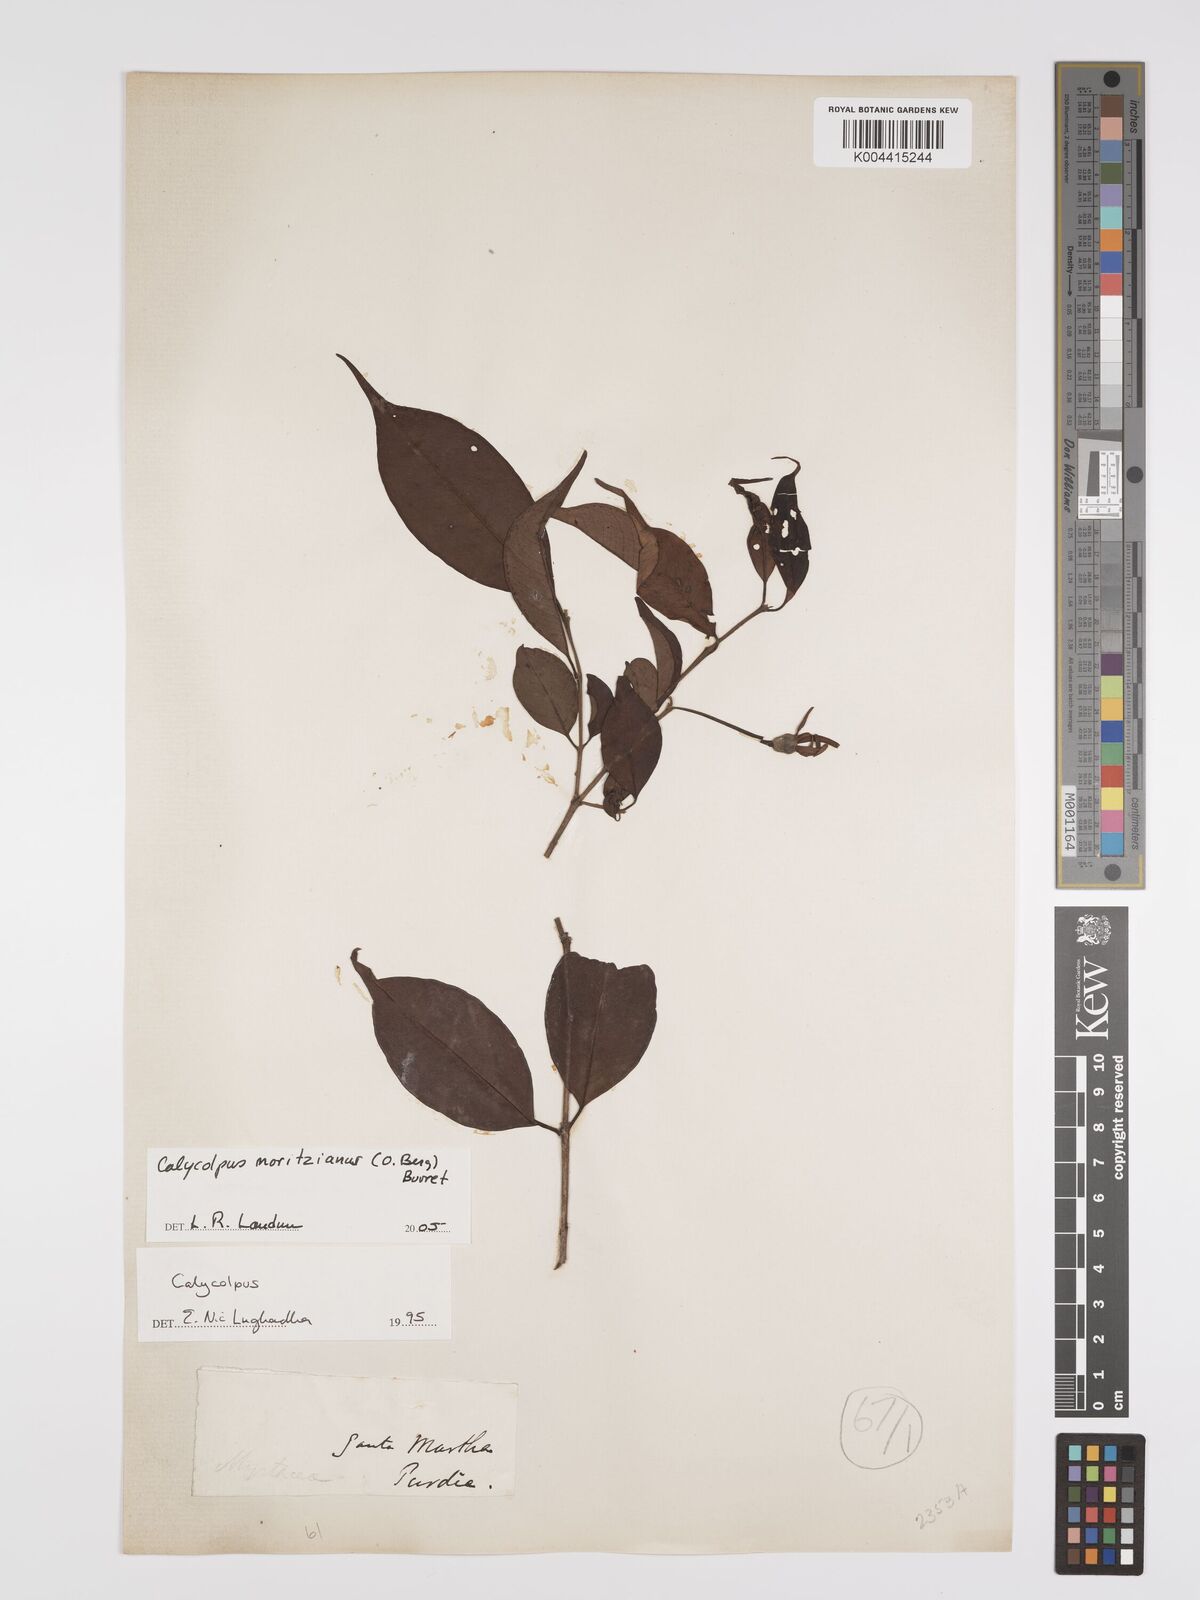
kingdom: Plantae
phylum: Tracheophyta
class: Magnoliopsida
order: Myrtales
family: Myrtaceae
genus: Calycolpus
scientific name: Calycolpus moritzianus
